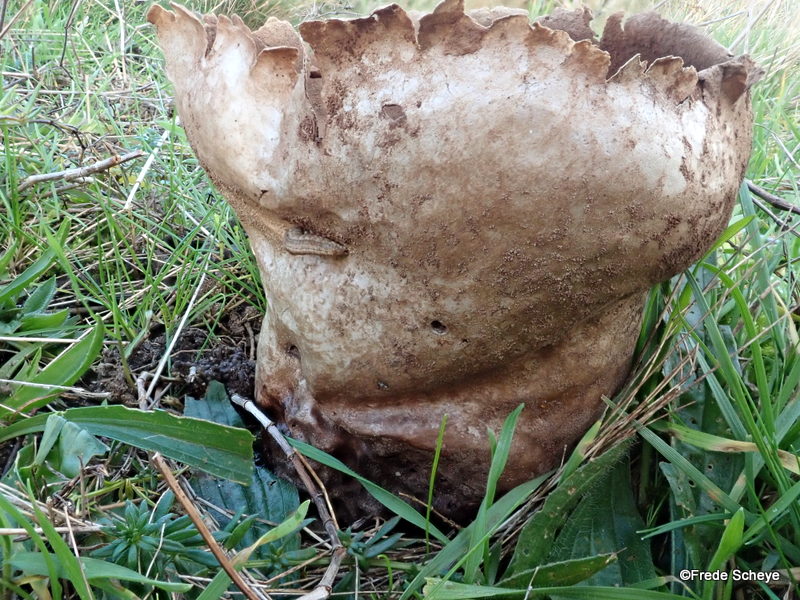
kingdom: Fungi
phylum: Basidiomycota
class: Agaricomycetes
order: Agaricales
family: Lycoperdaceae
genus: Bovistella
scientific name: Bovistella utriformis
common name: skællet støvbold
